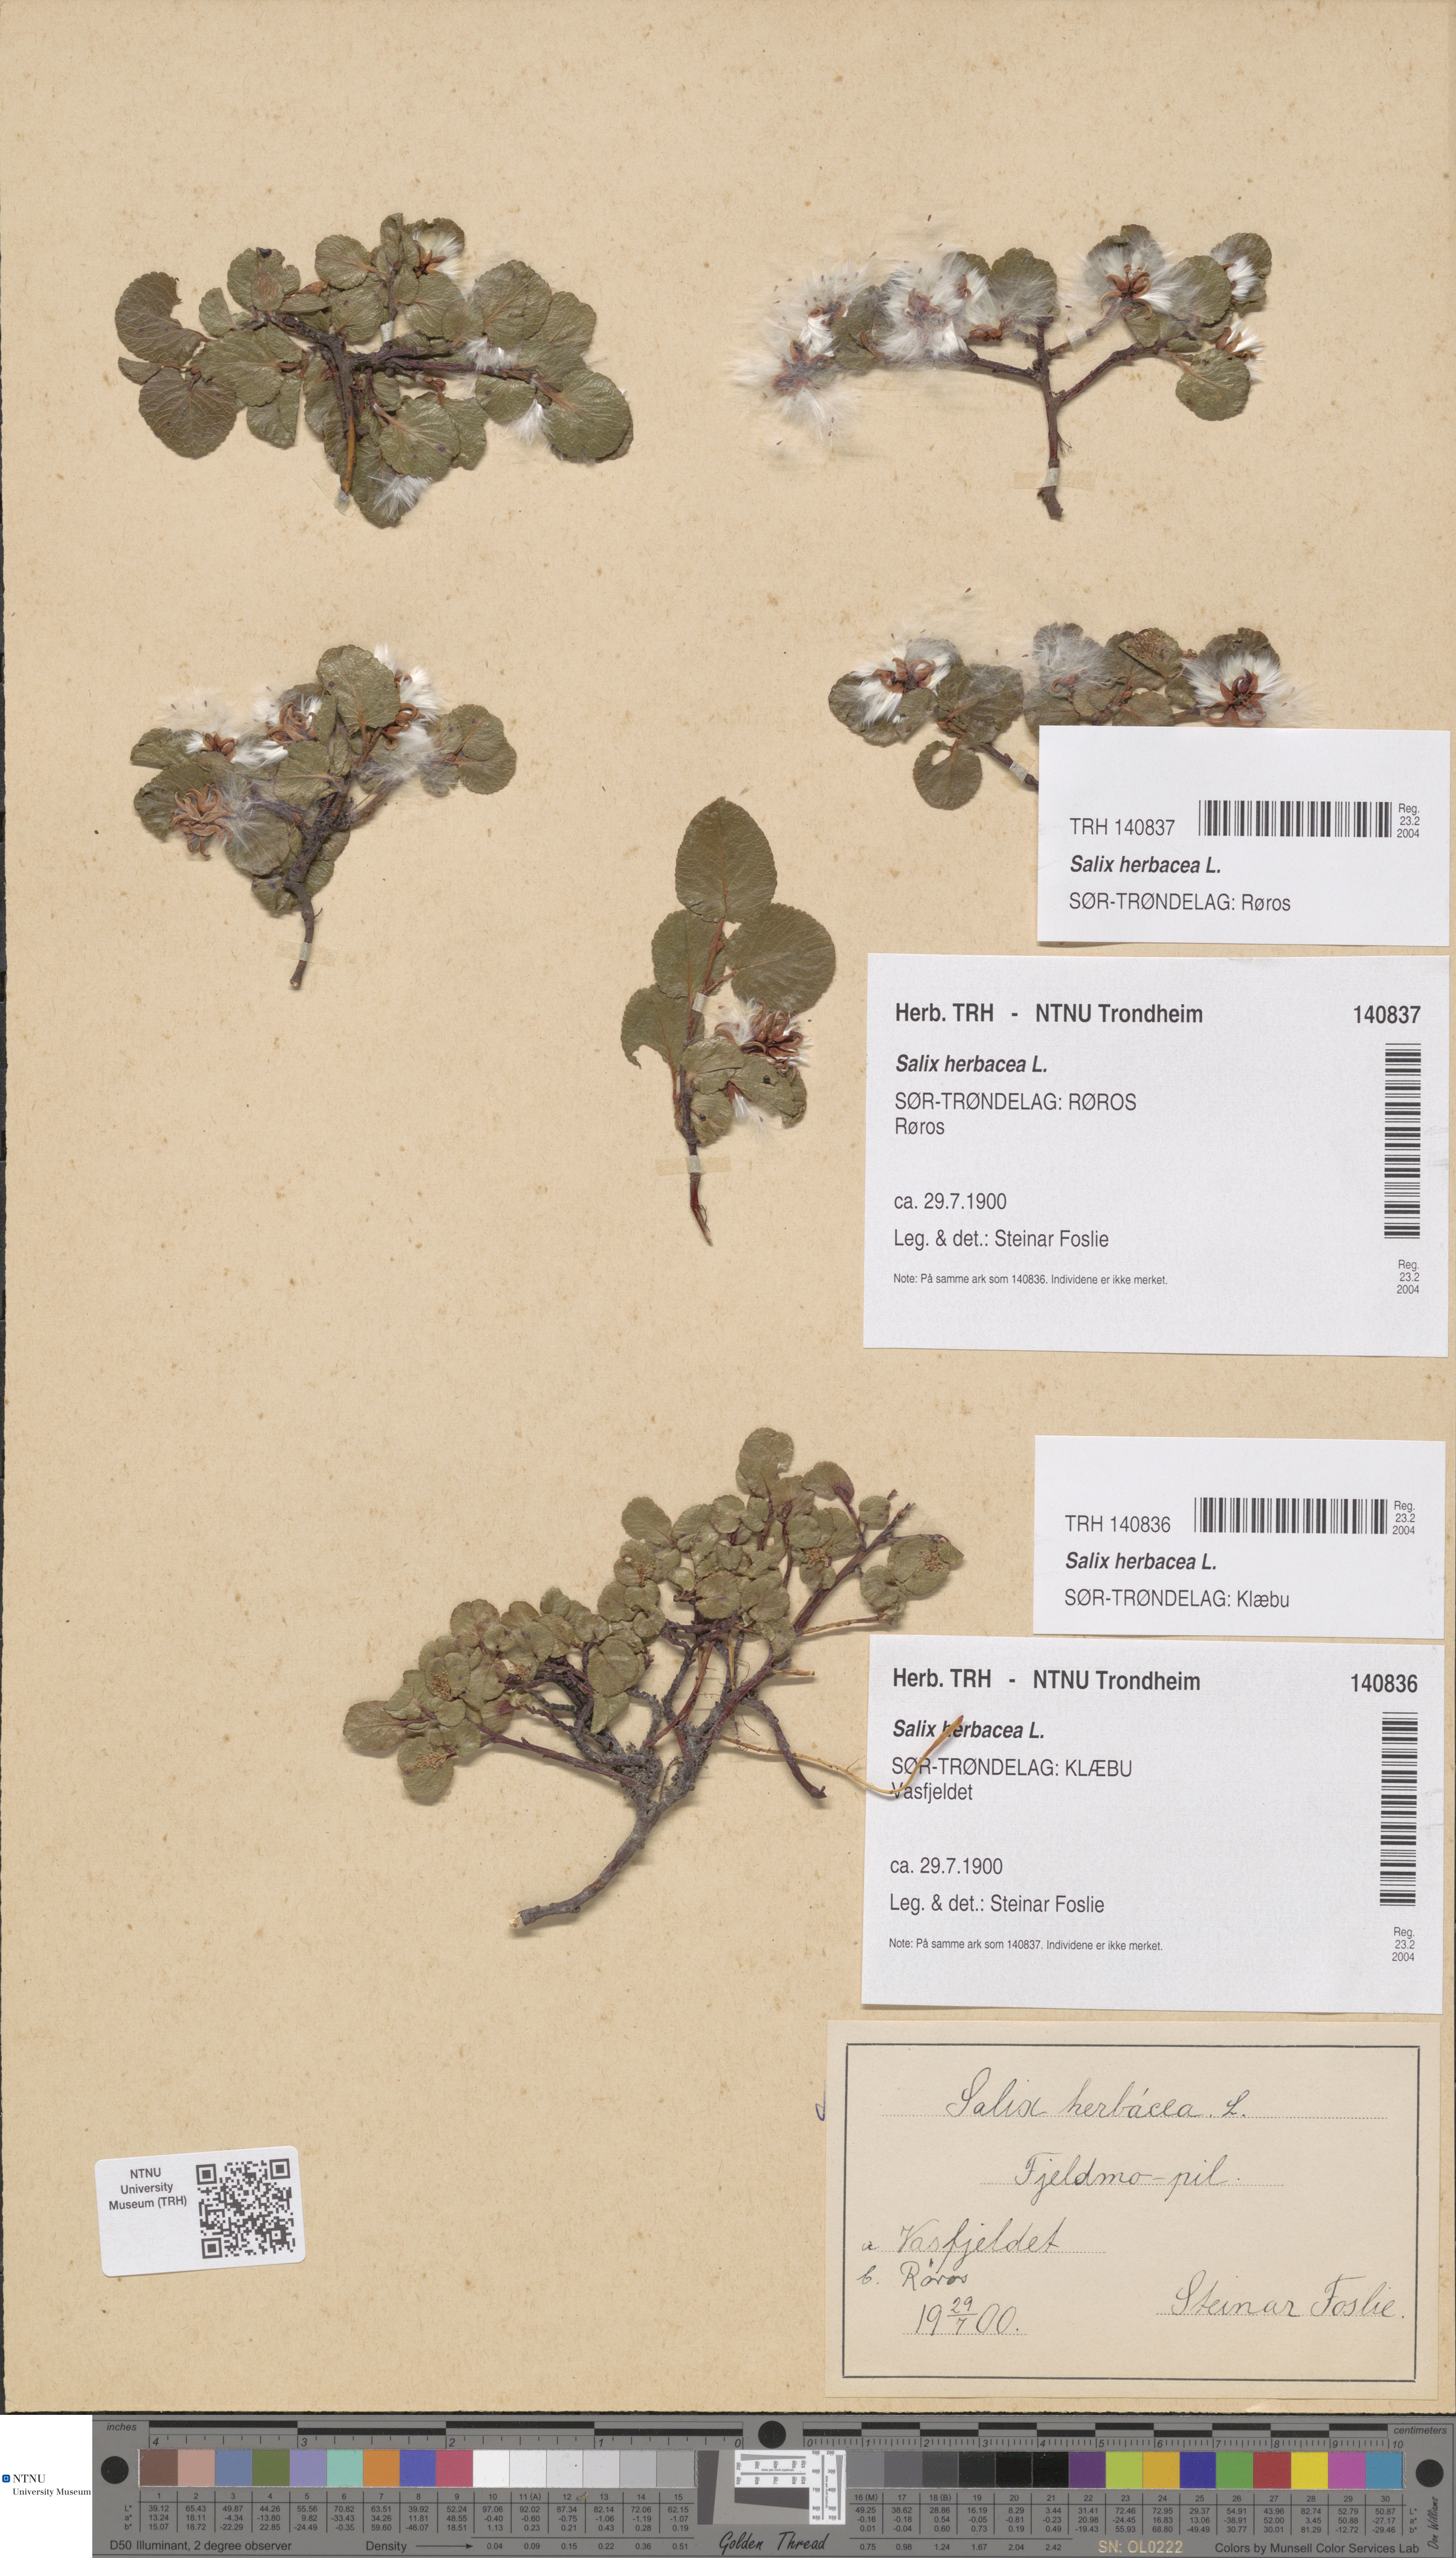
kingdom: Plantae
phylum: Tracheophyta
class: Magnoliopsida
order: Malpighiales
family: Salicaceae
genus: Salix
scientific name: Salix herbacea
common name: Dwarf willow
